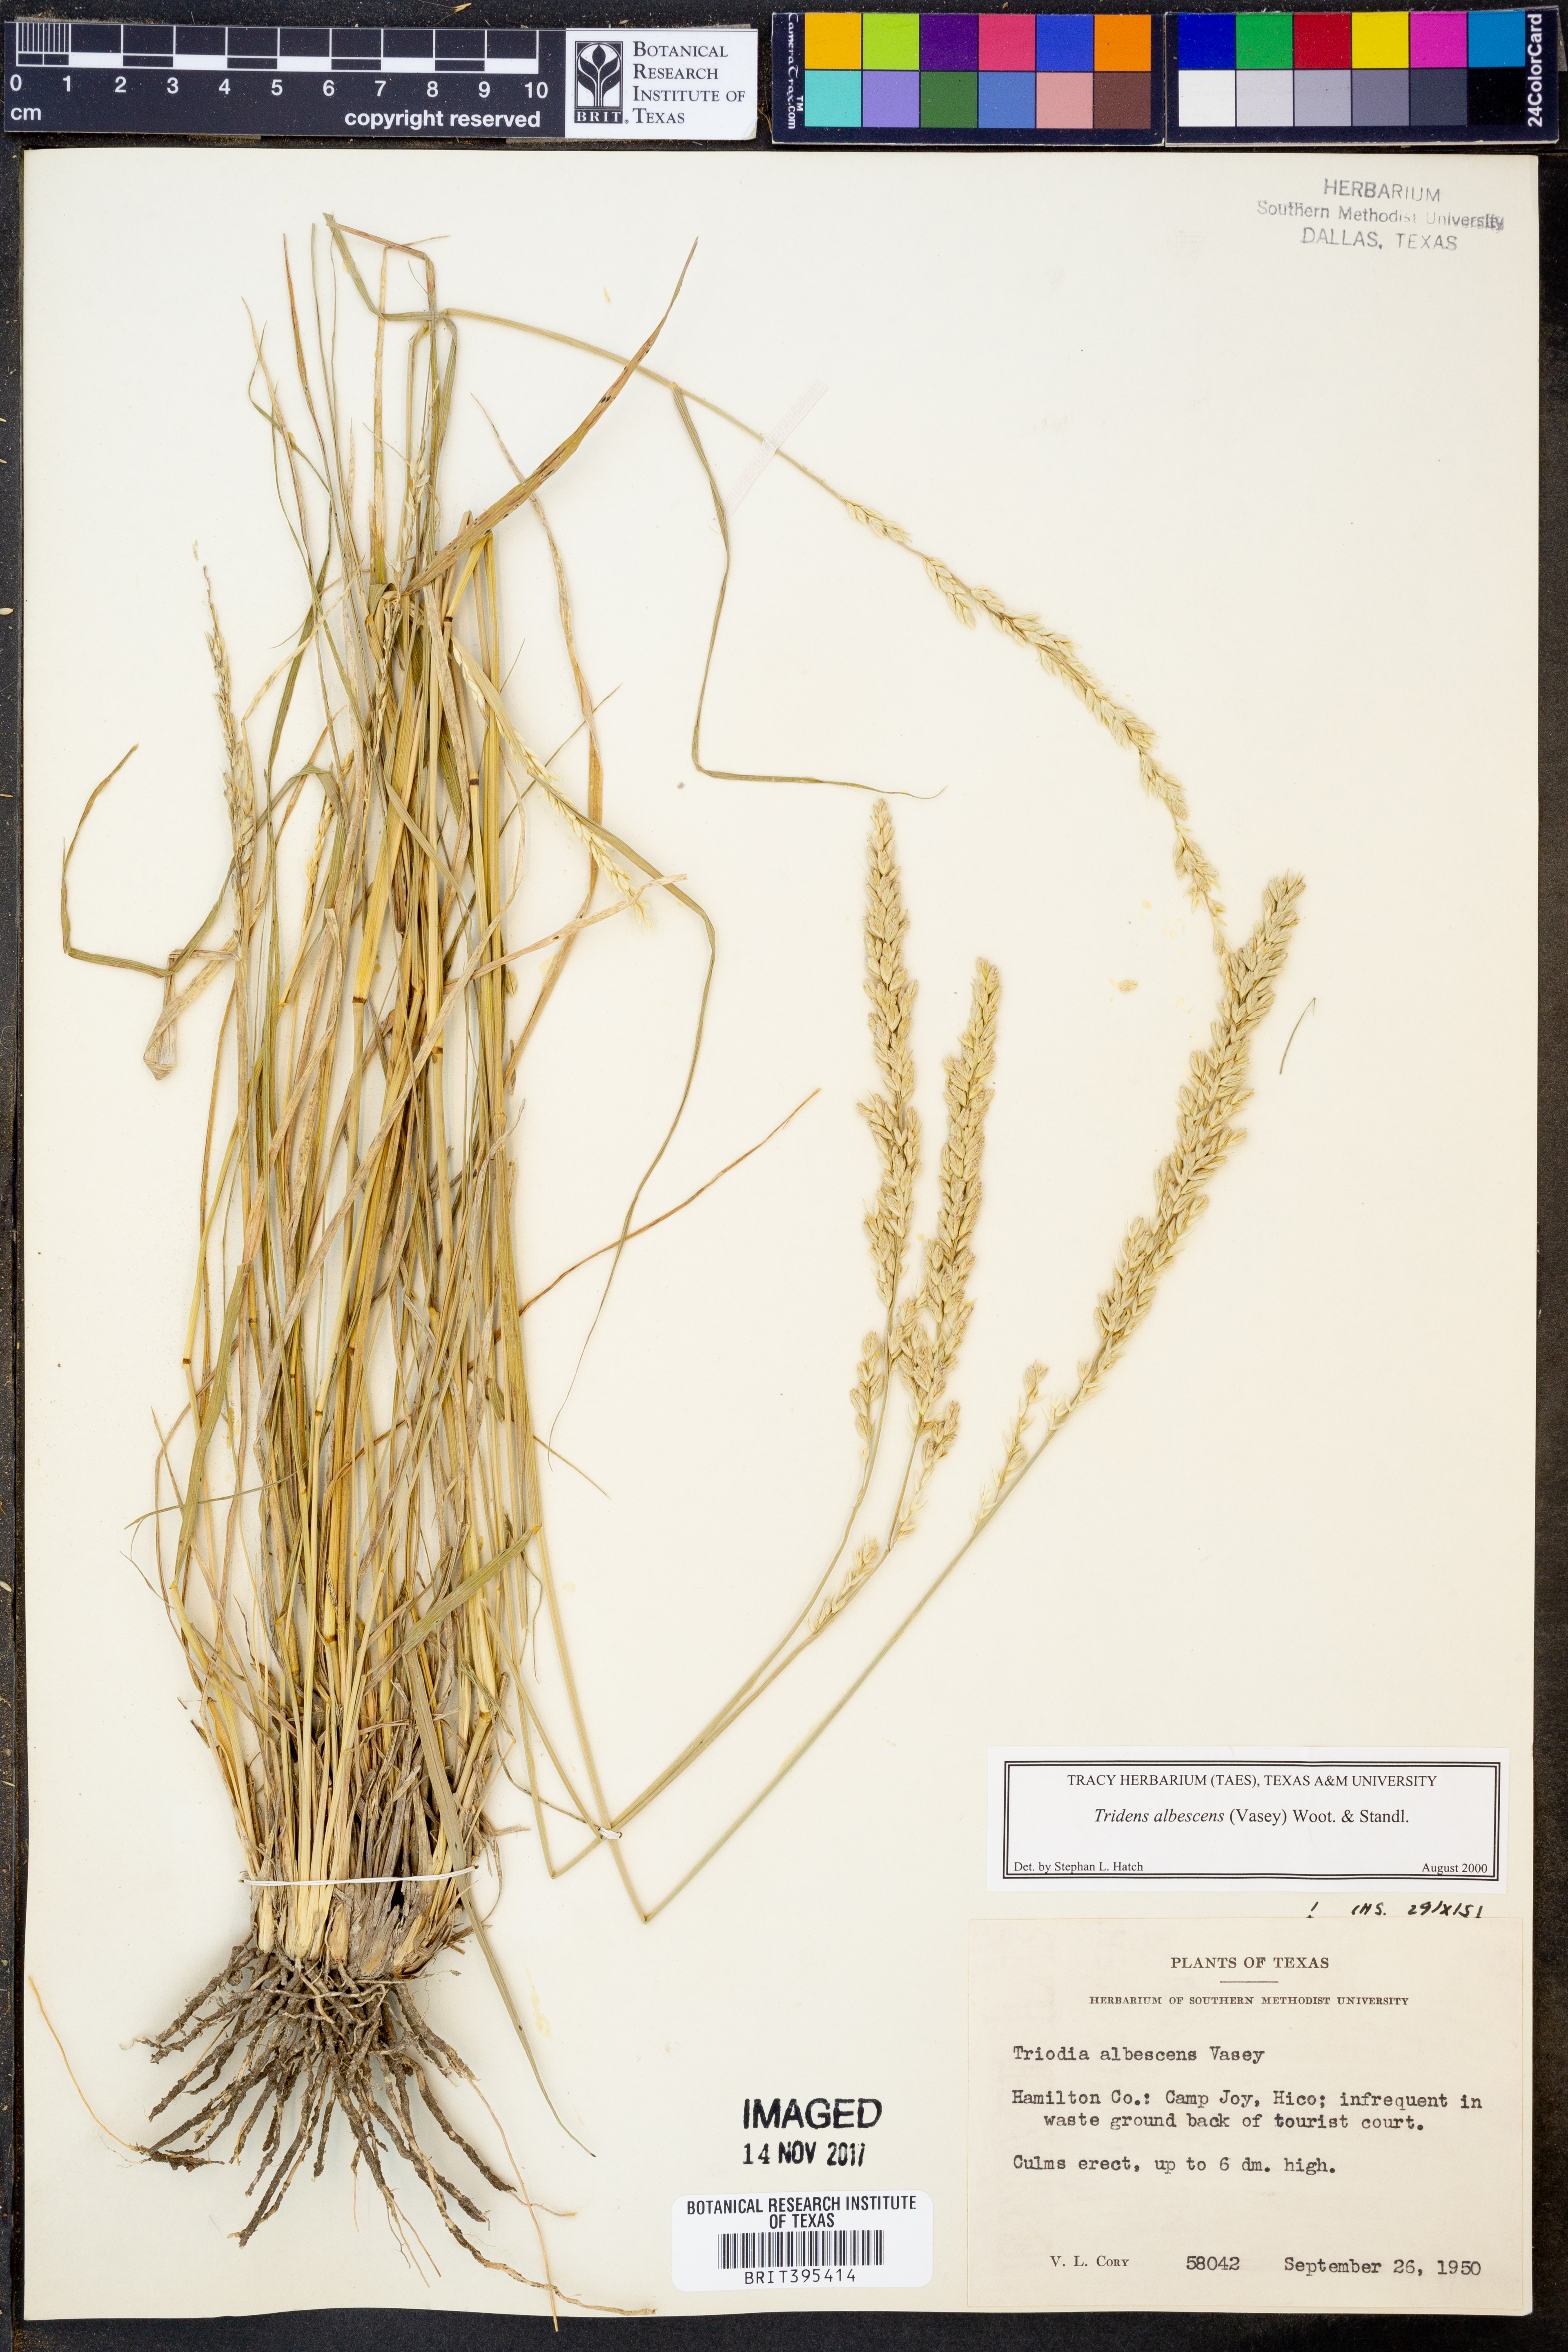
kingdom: Plantae
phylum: Tracheophyta
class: Liliopsida
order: Poales
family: Poaceae
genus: Tridens
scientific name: Tridens albescens
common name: White tridens
